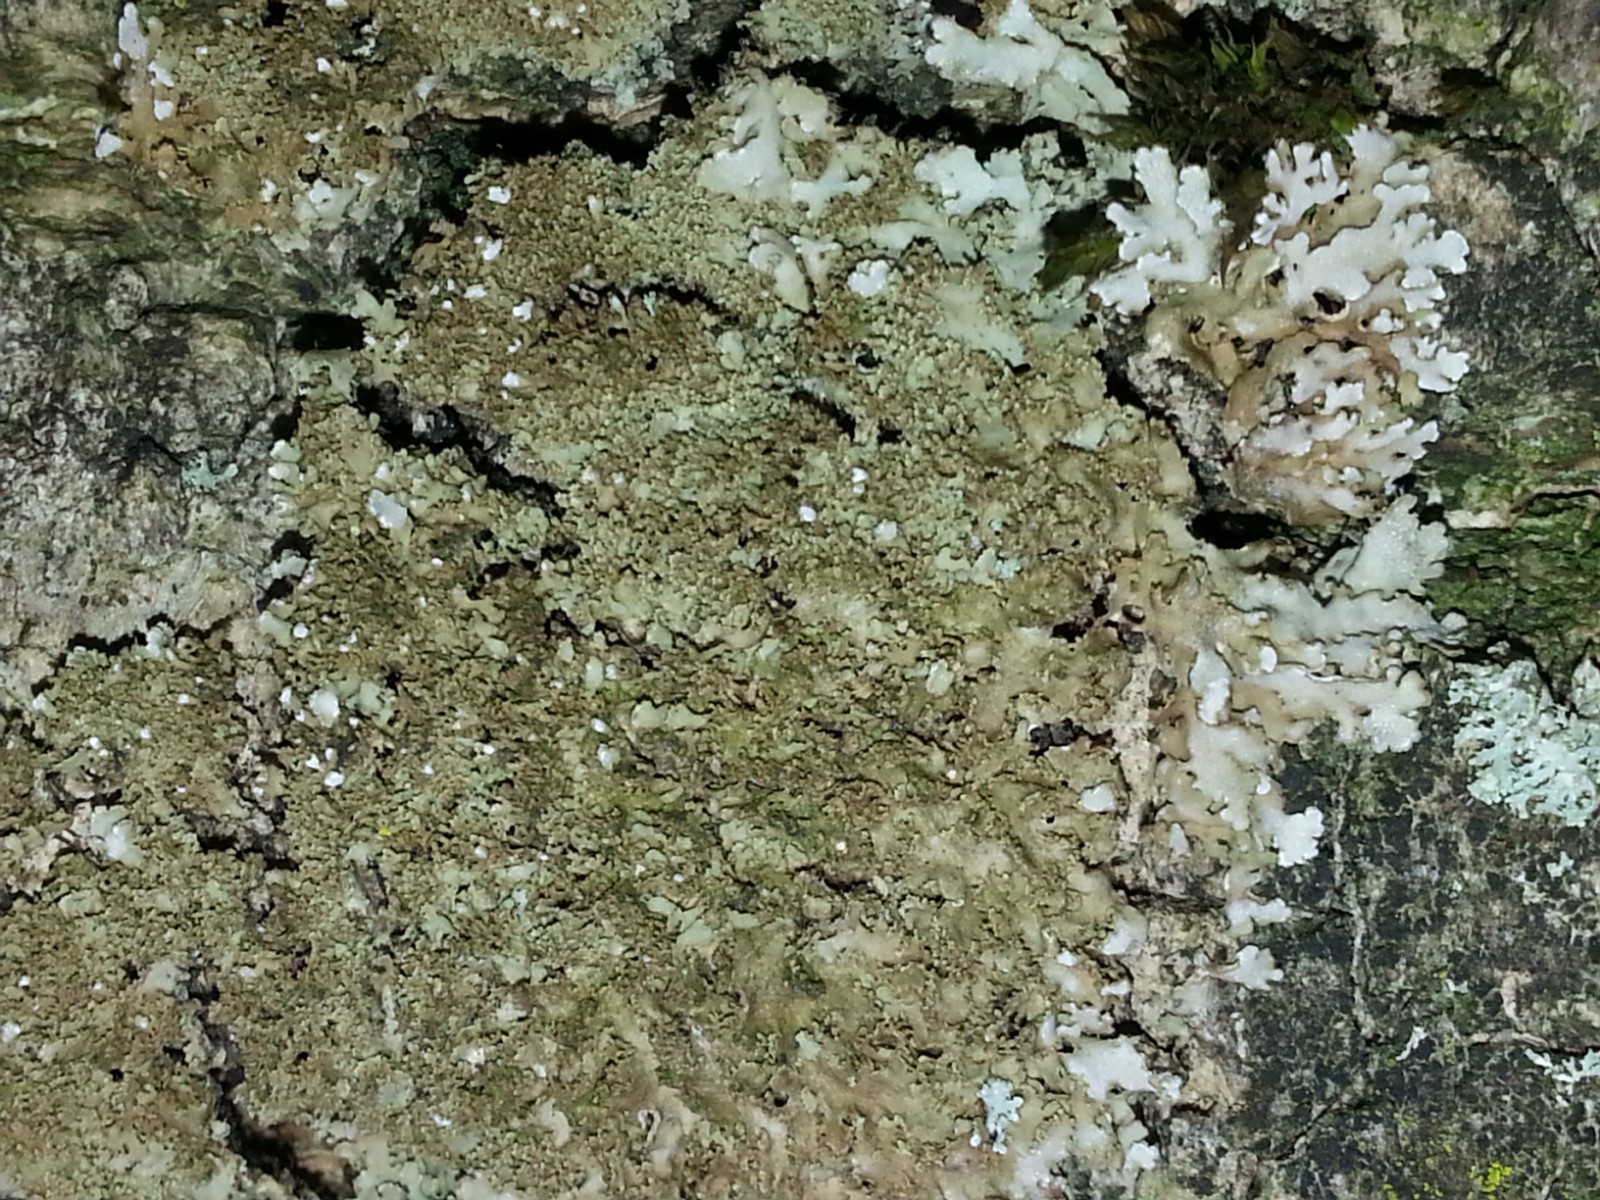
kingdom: Fungi
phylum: Ascomycota
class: Lecanoromycetes
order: Caliciales
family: Physciaceae
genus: Poeltonia
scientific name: Poeltonia grisea
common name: hvidgrå dugrosetlav
